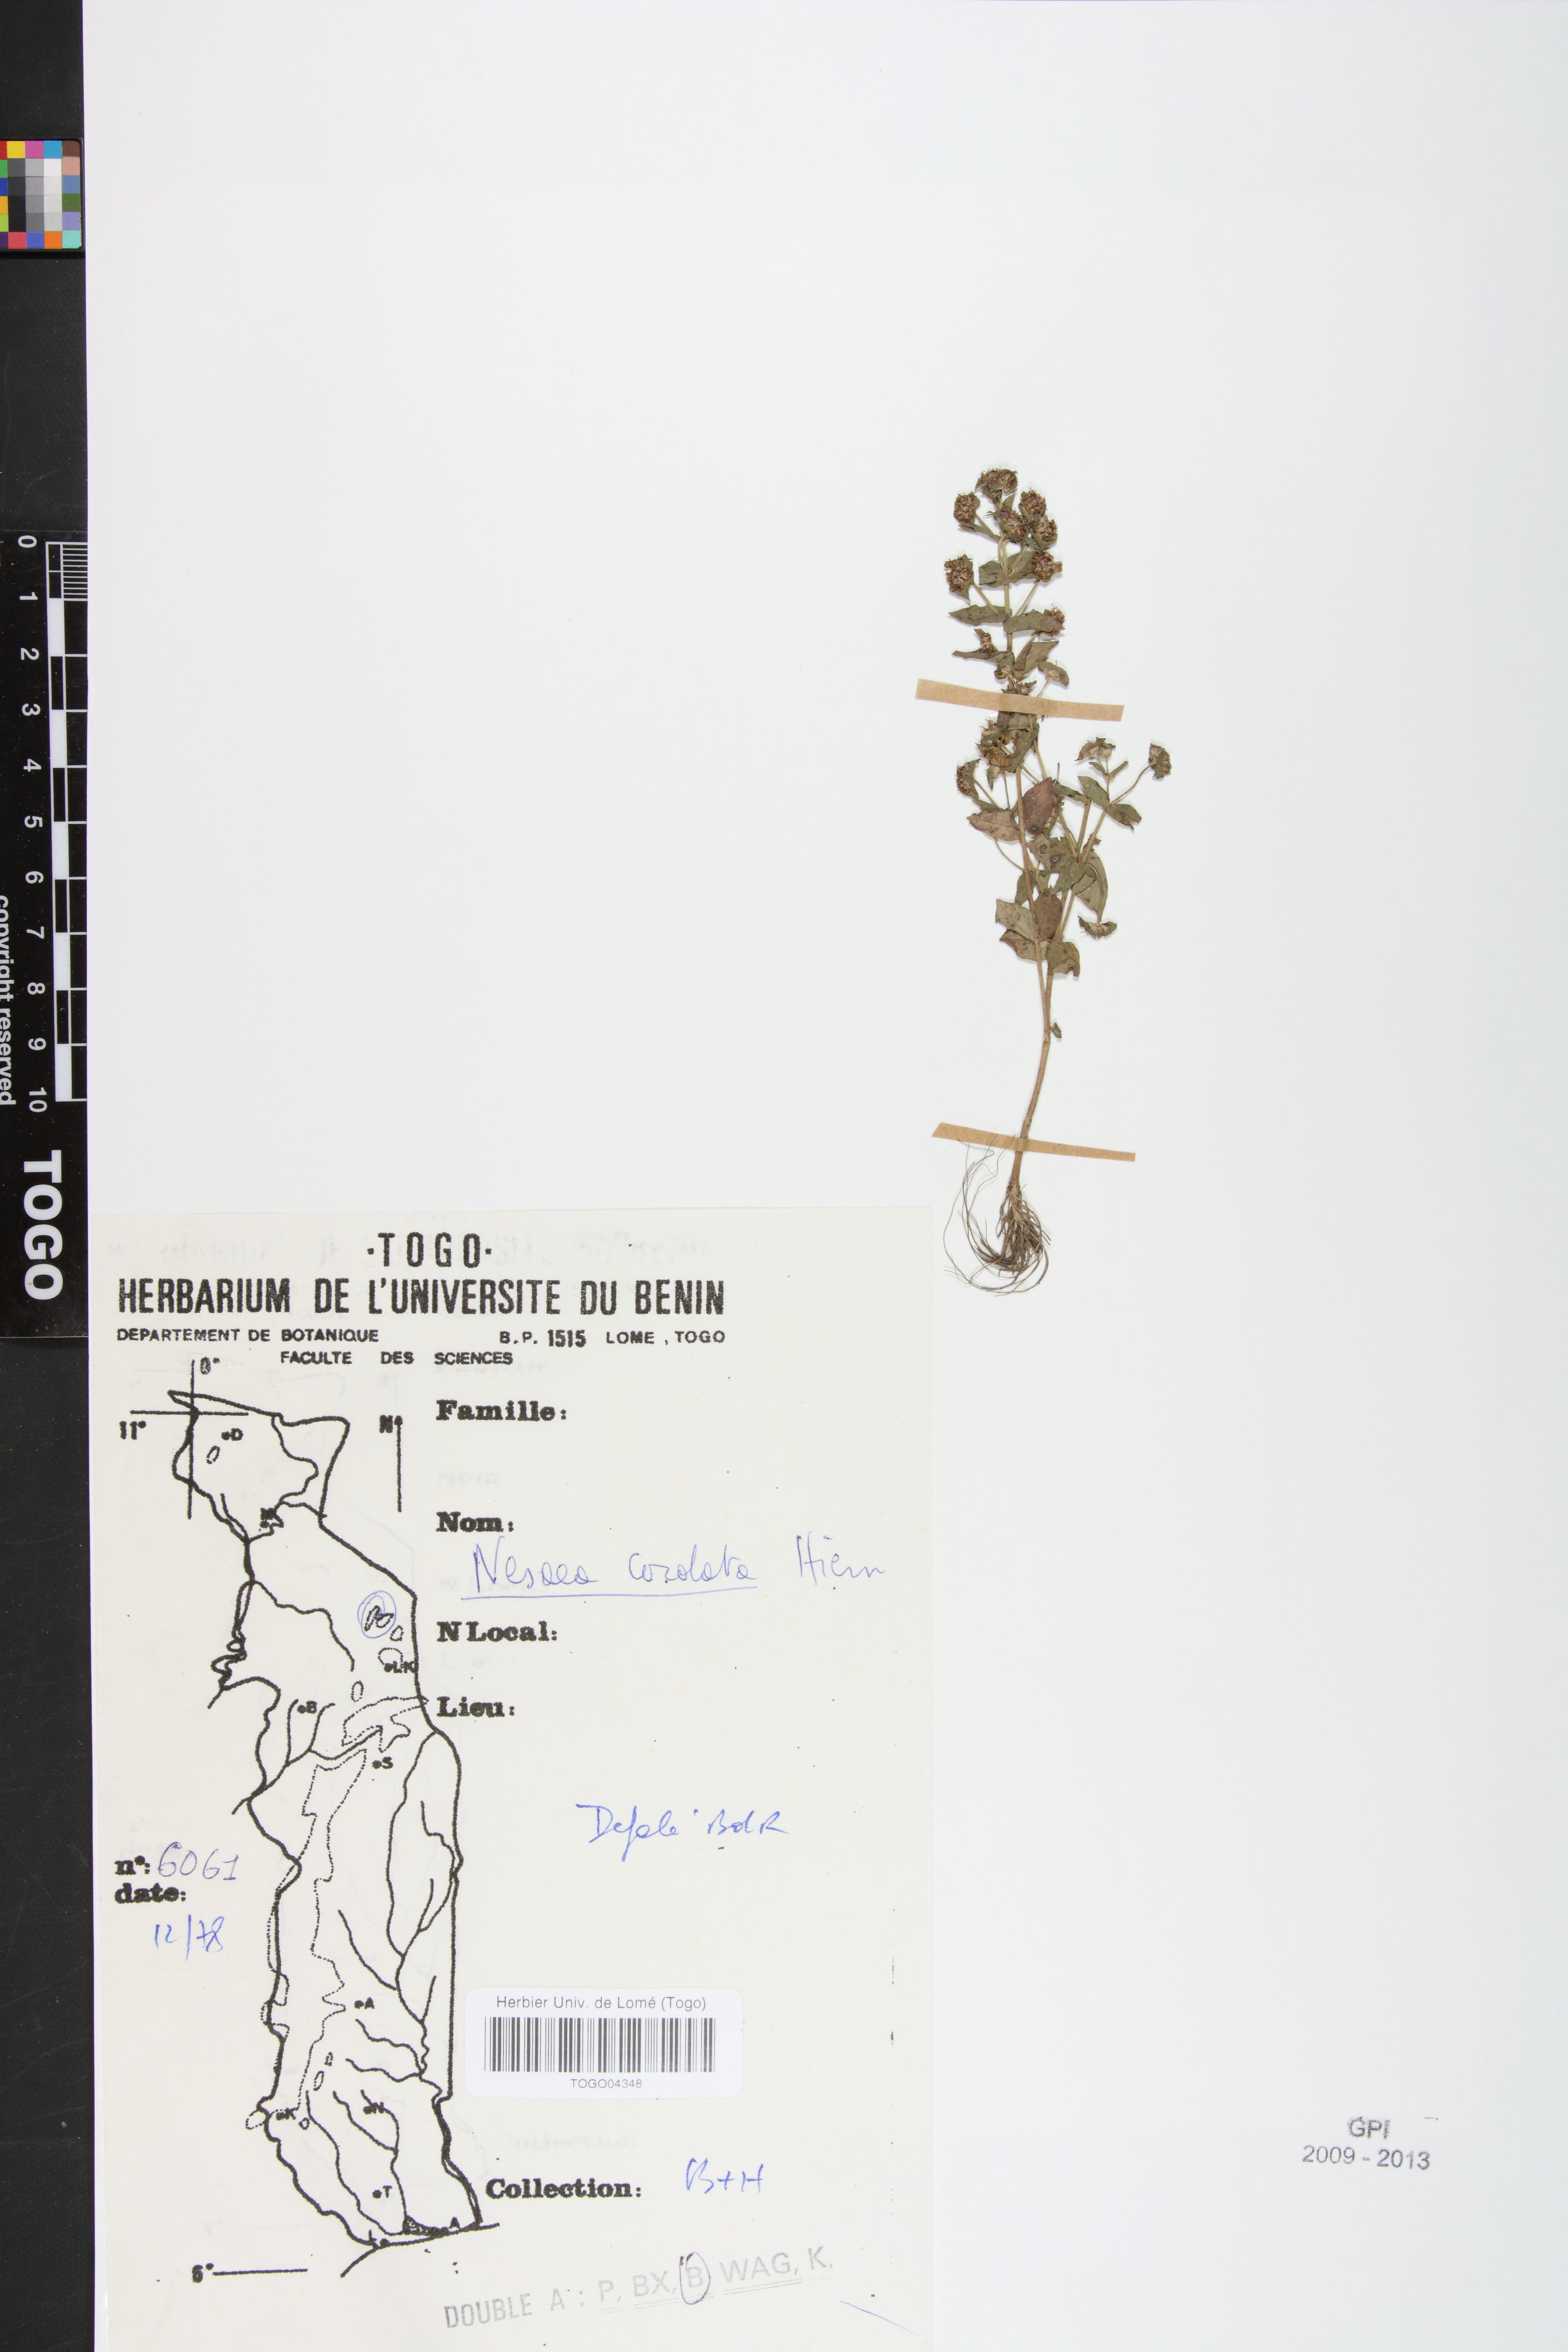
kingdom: Plantae
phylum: Tracheophyta
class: Magnoliopsida
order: Myrtales
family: Lythraceae
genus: Ammannia
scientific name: Ammannia involucrata
